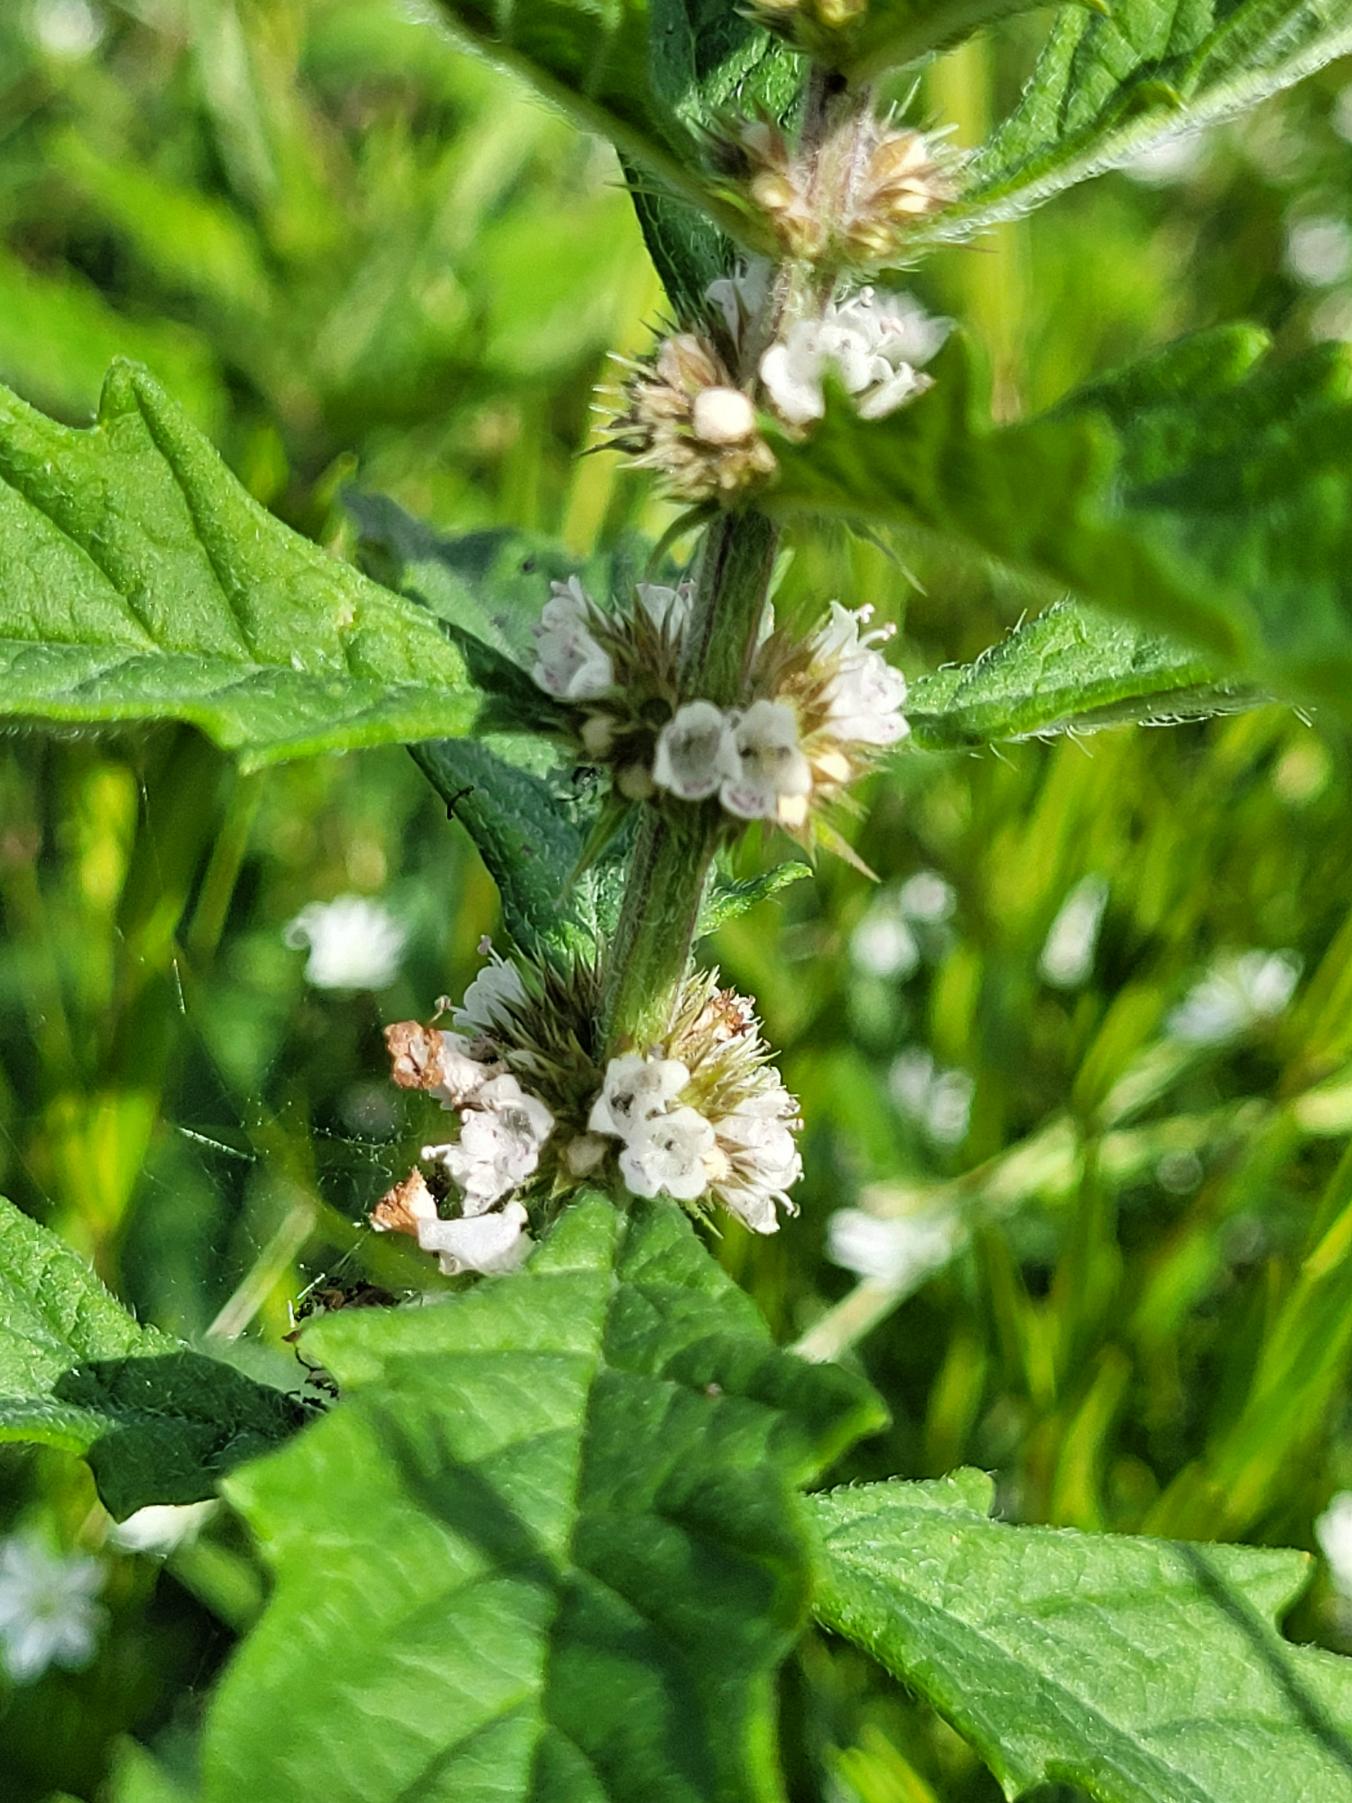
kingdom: Plantae
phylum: Tracheophyta
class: Magnoliopsida
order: Lamiales
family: Lamiaceae
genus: Lycopus
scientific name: Lycopus europaeus
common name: Sværtevæld
